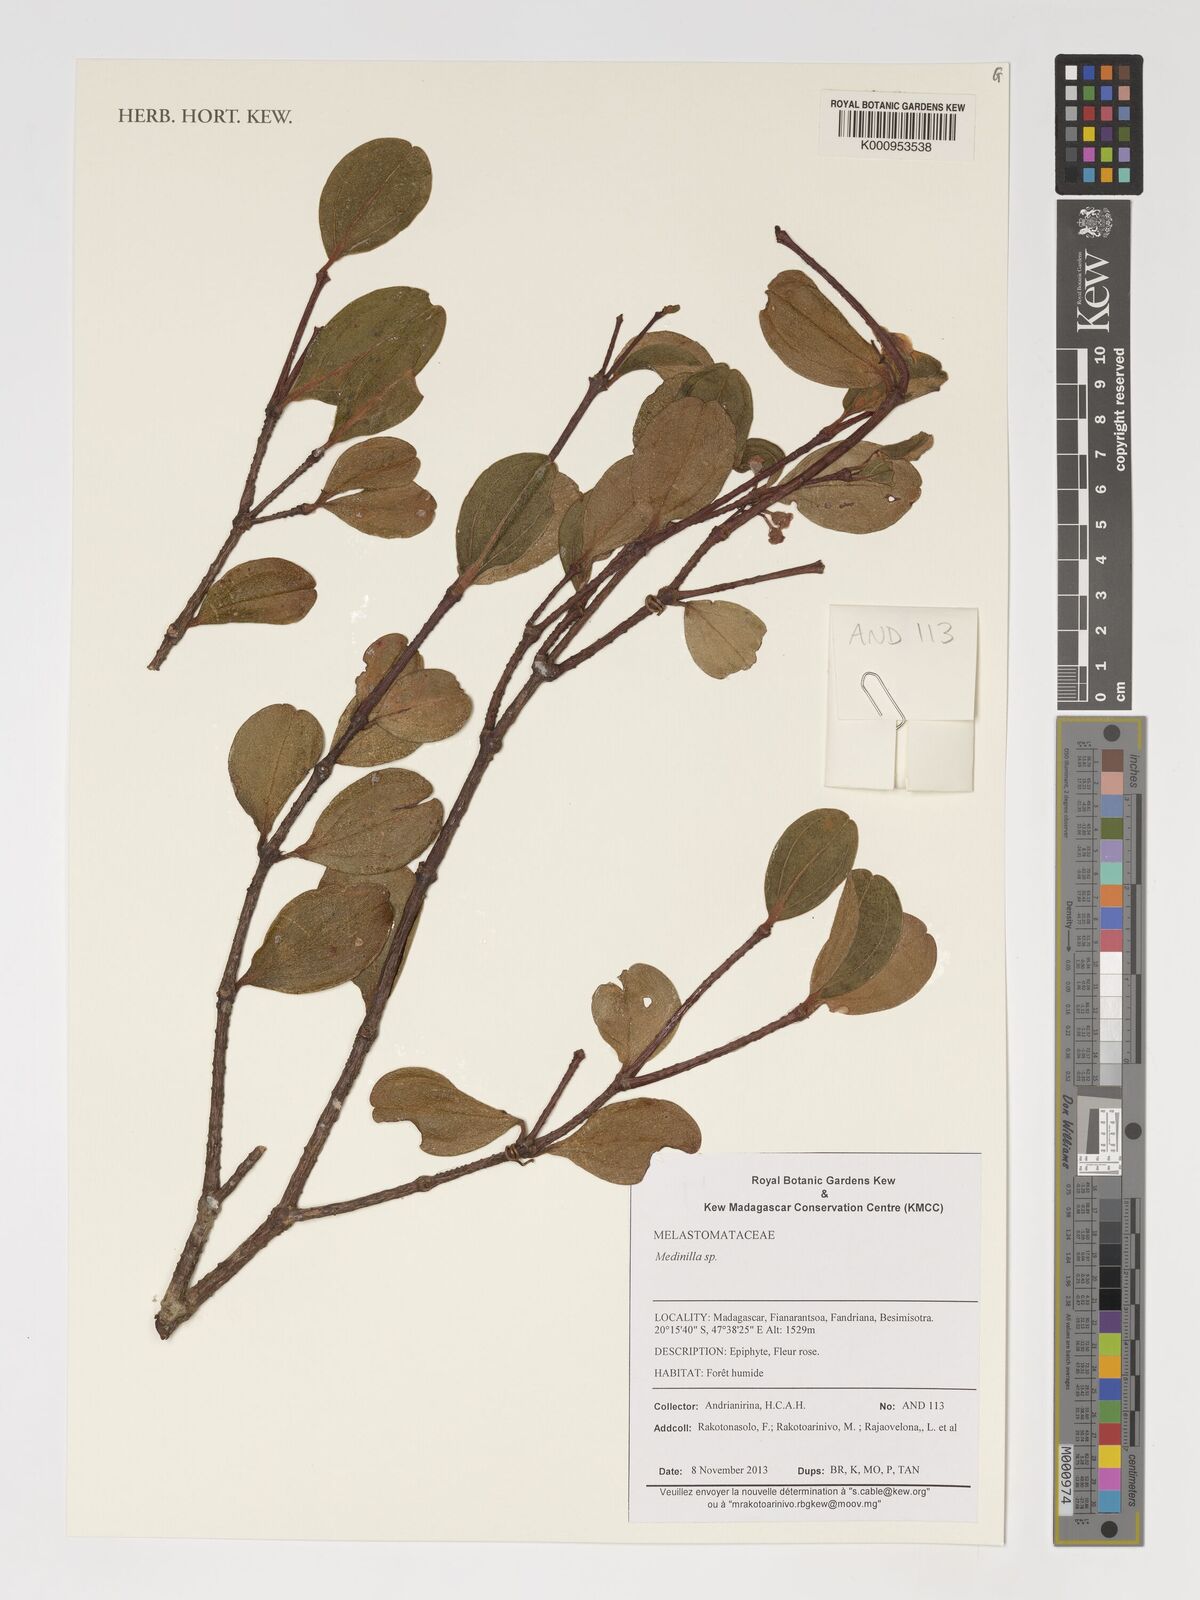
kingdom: Plantae
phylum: Tracheophyta
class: Magnoliopsida
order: Myrtales
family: Melastomataceae
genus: Medinilla
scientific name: Medinilla
